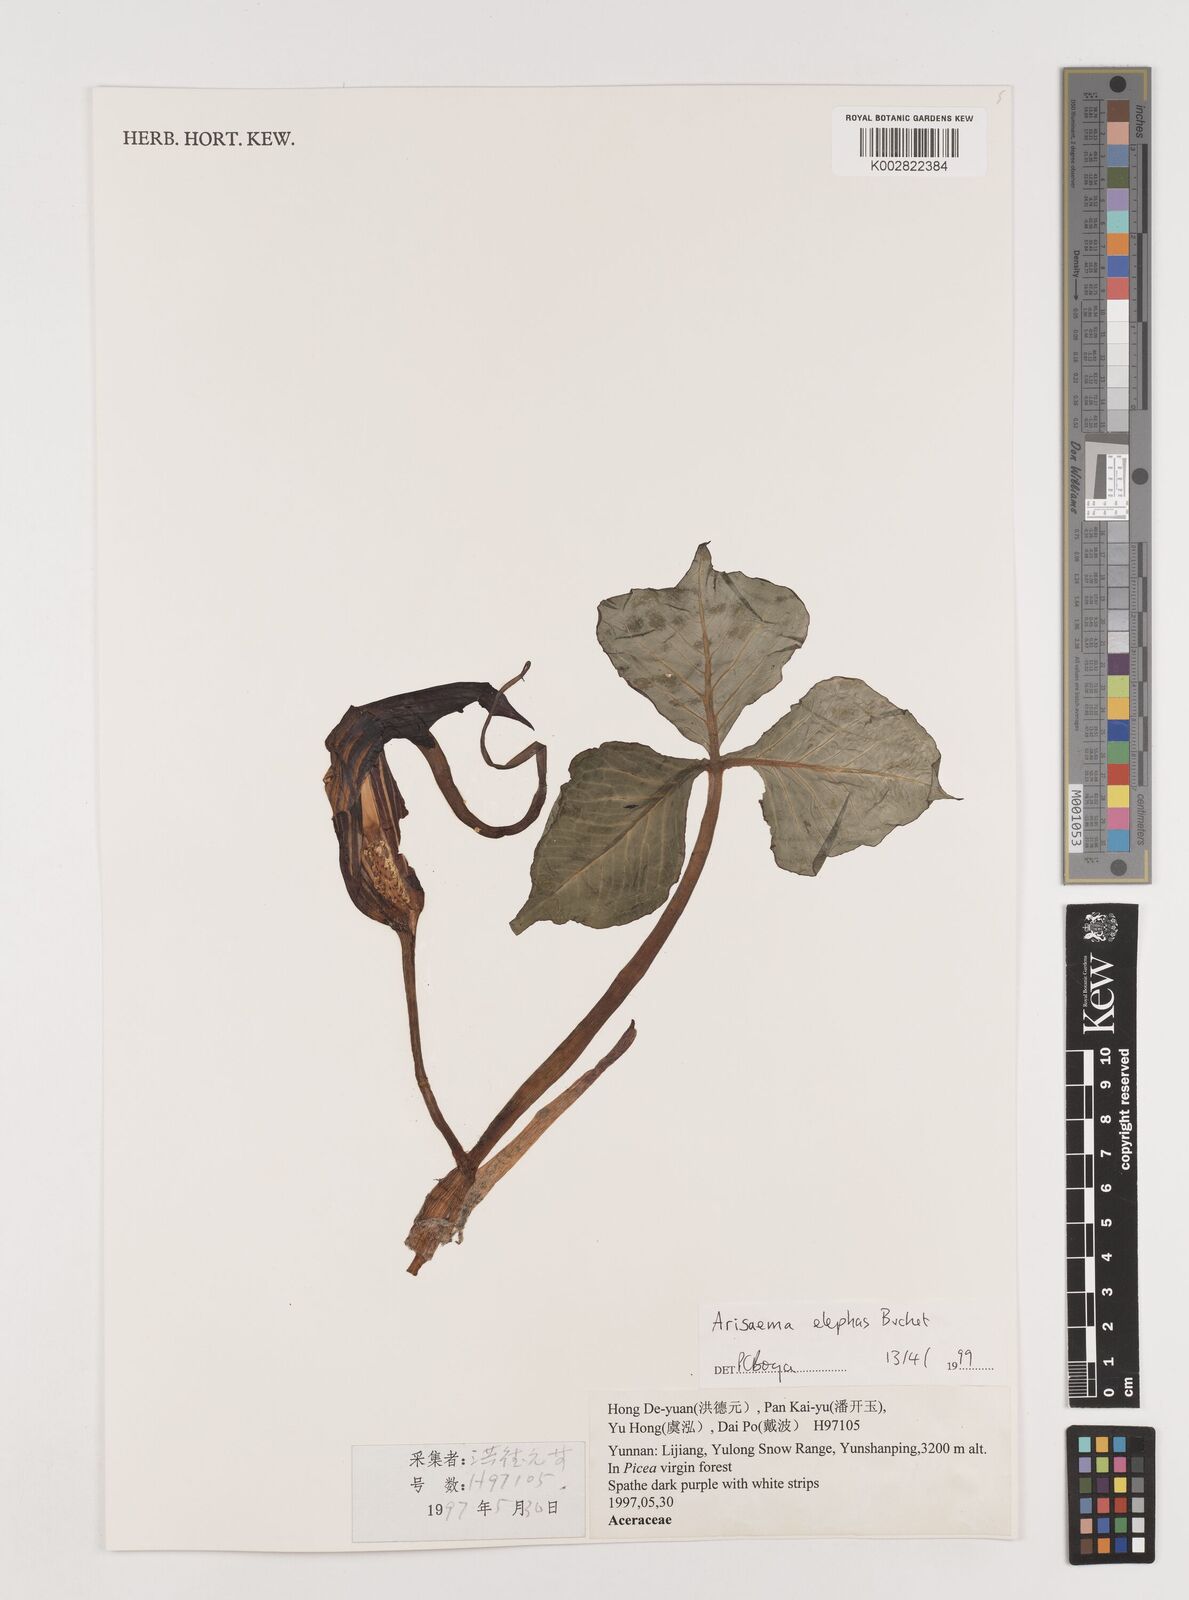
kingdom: Plantae
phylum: Tracheophyta
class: Liliopsida
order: Alismatales
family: Araceae
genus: Arisaema
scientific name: Arisaema elephas
